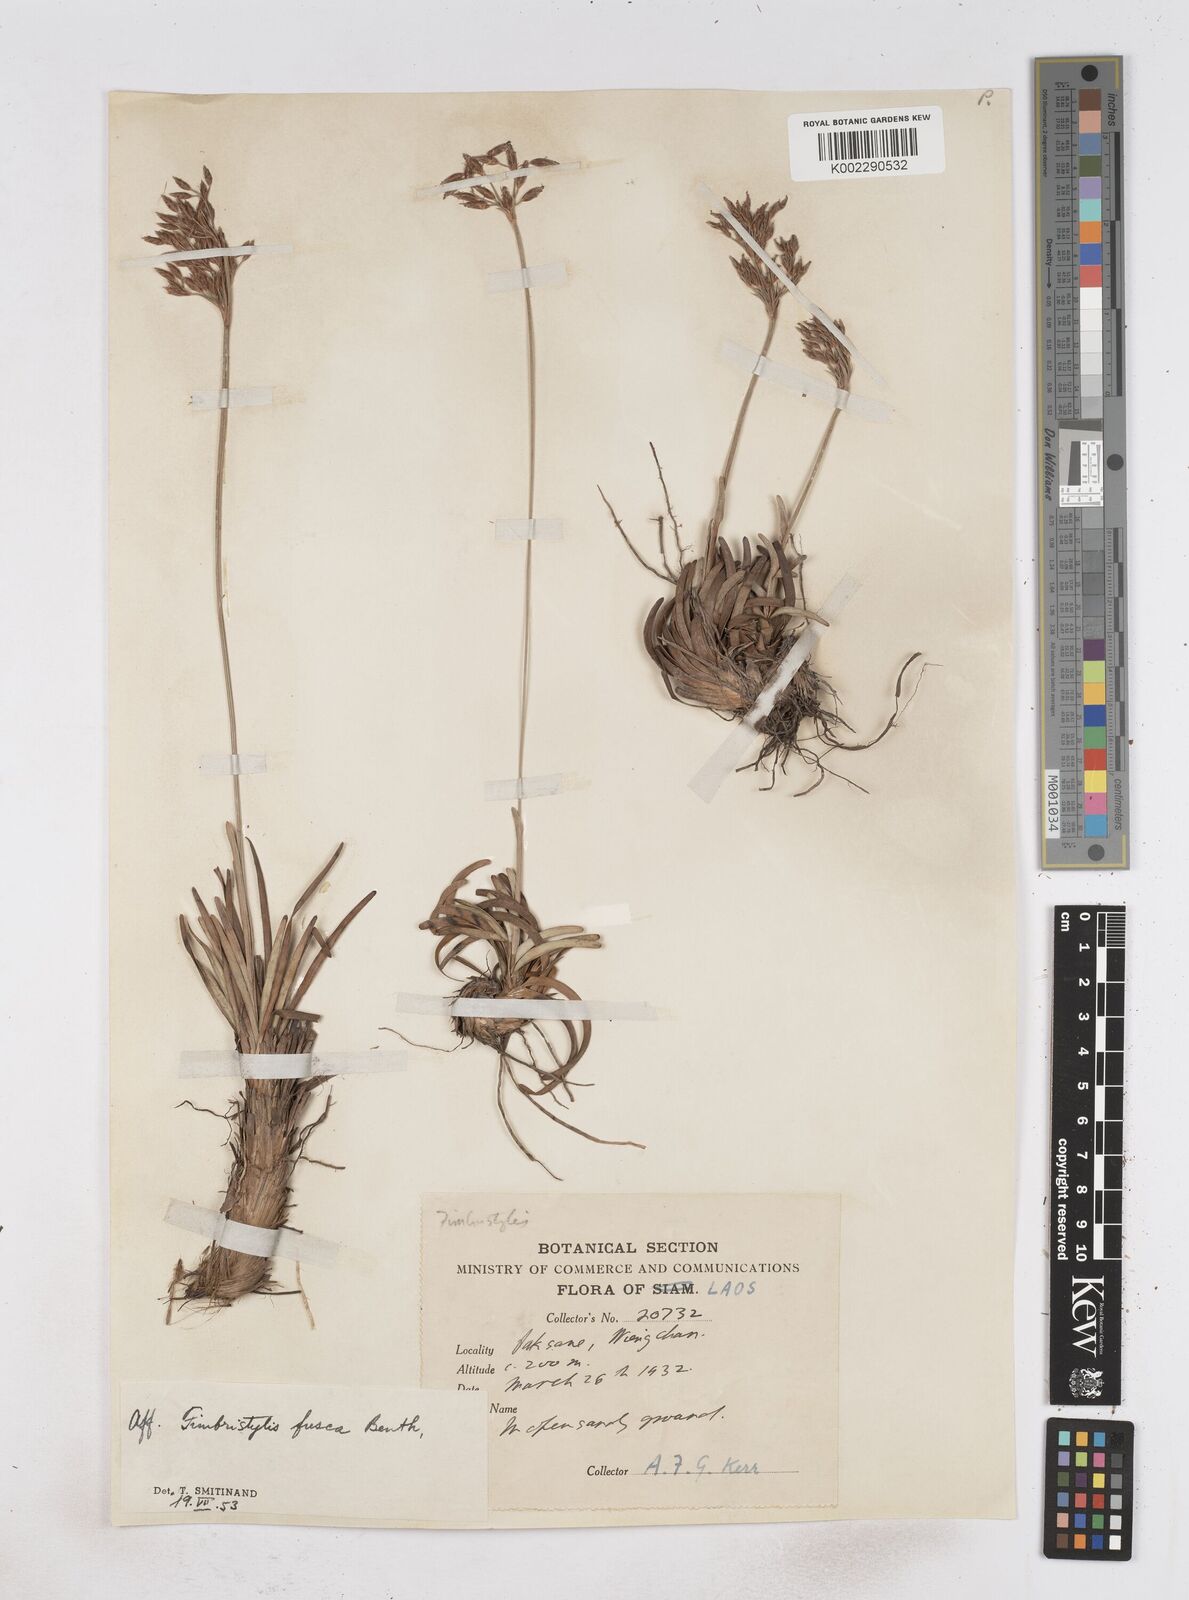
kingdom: Plantae
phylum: Tracheophyta
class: Liliopsida
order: Poales
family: Cyperaceae
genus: Fimbristylis
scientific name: Fimbristylis fusca
